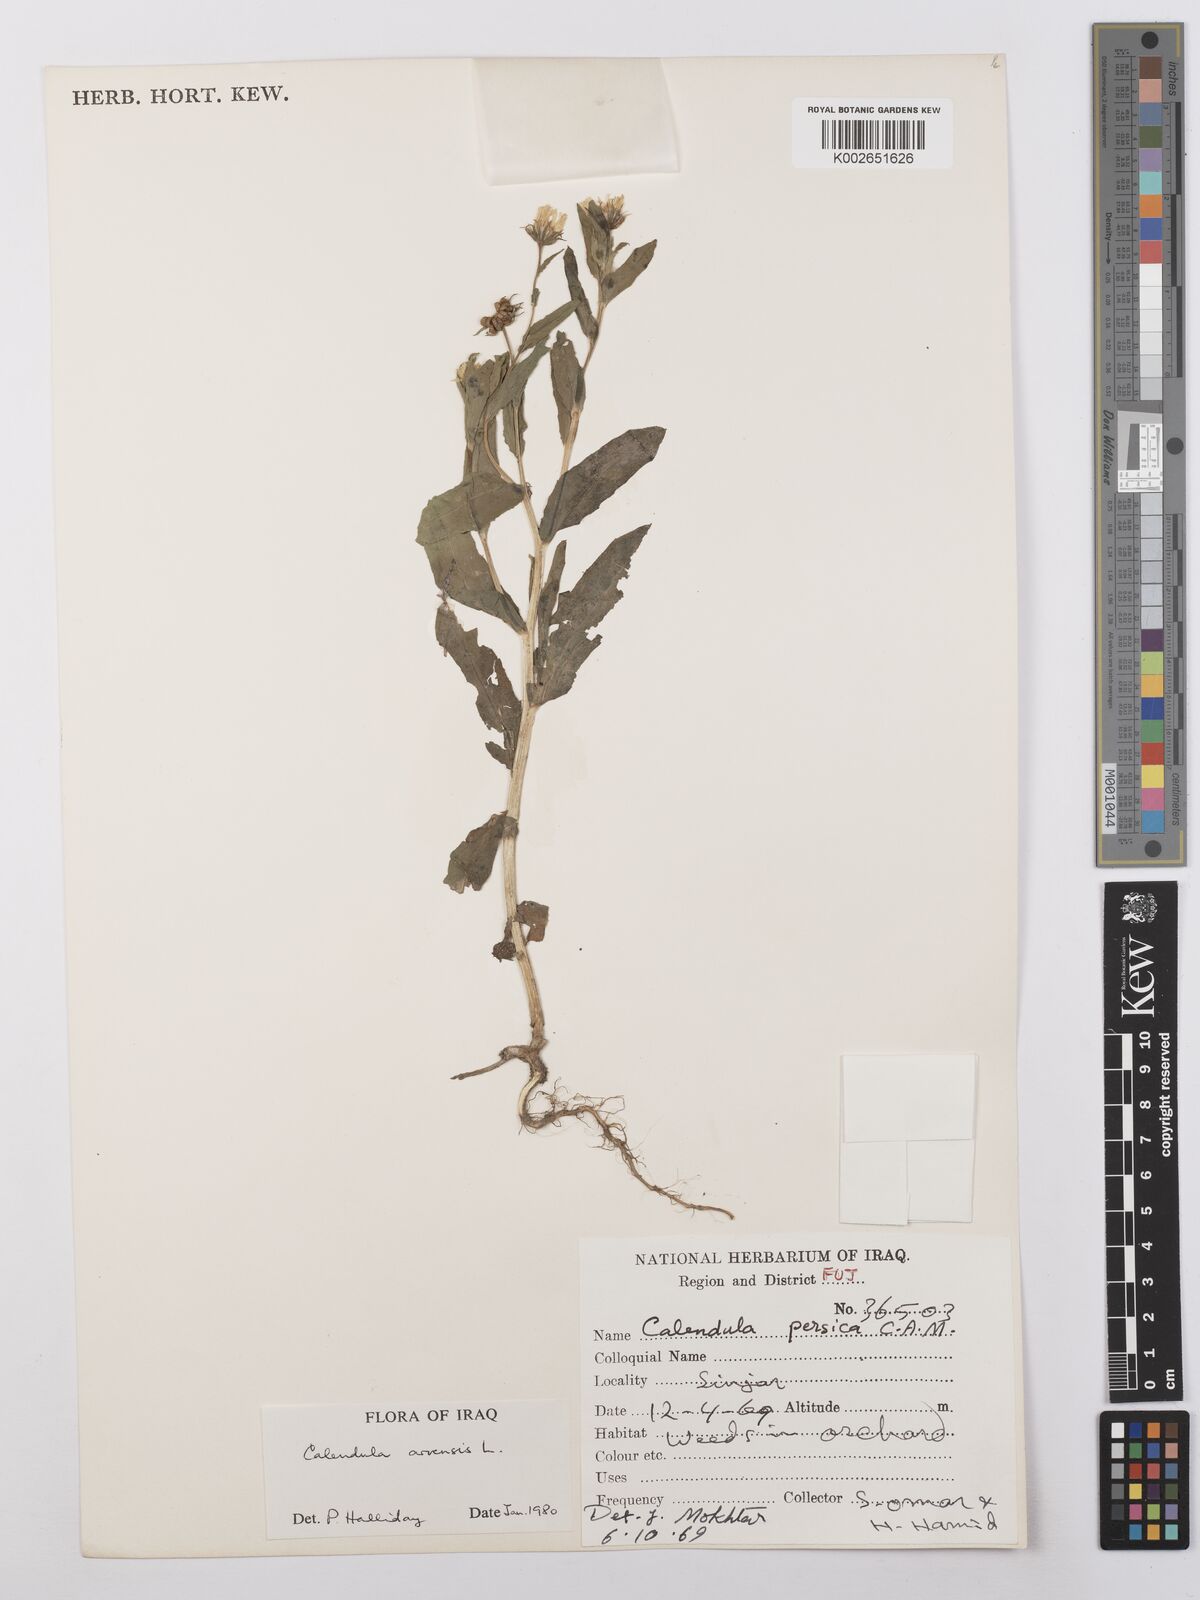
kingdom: Plantae
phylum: Tracheophyta
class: Magnoliopsida
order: Asterales
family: Asteraceae
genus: Calendula
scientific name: Calendula arvensis
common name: Field marigold
